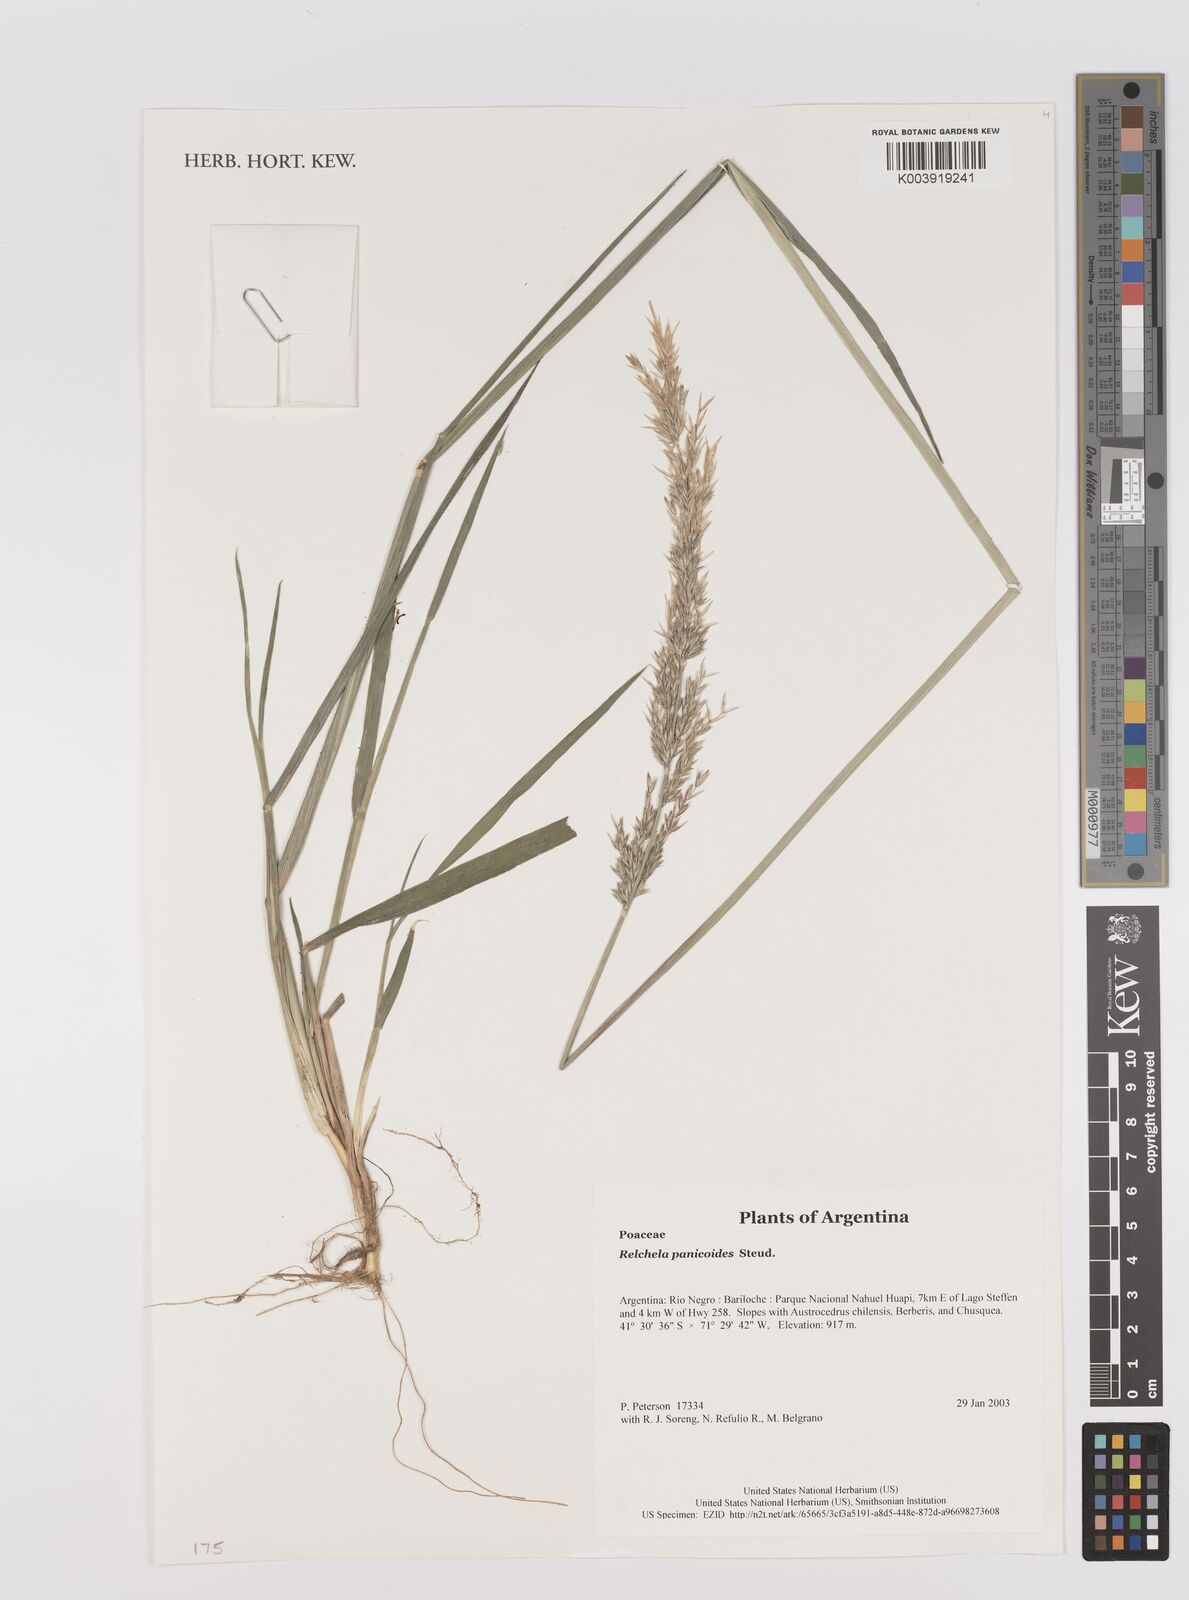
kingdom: Plantae
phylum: Tracheophyta
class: Liliopsida
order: Poales
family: Poaceae
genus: Relchela
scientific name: Relchela panicoides
